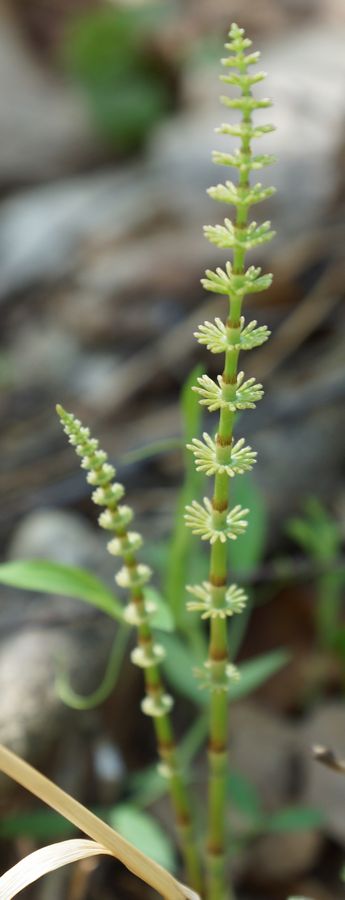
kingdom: Plantae
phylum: Tracheophyta
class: Polypodiopsida
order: Equisetales
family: Equisetaceae
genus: Equisetum
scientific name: Equisetum
